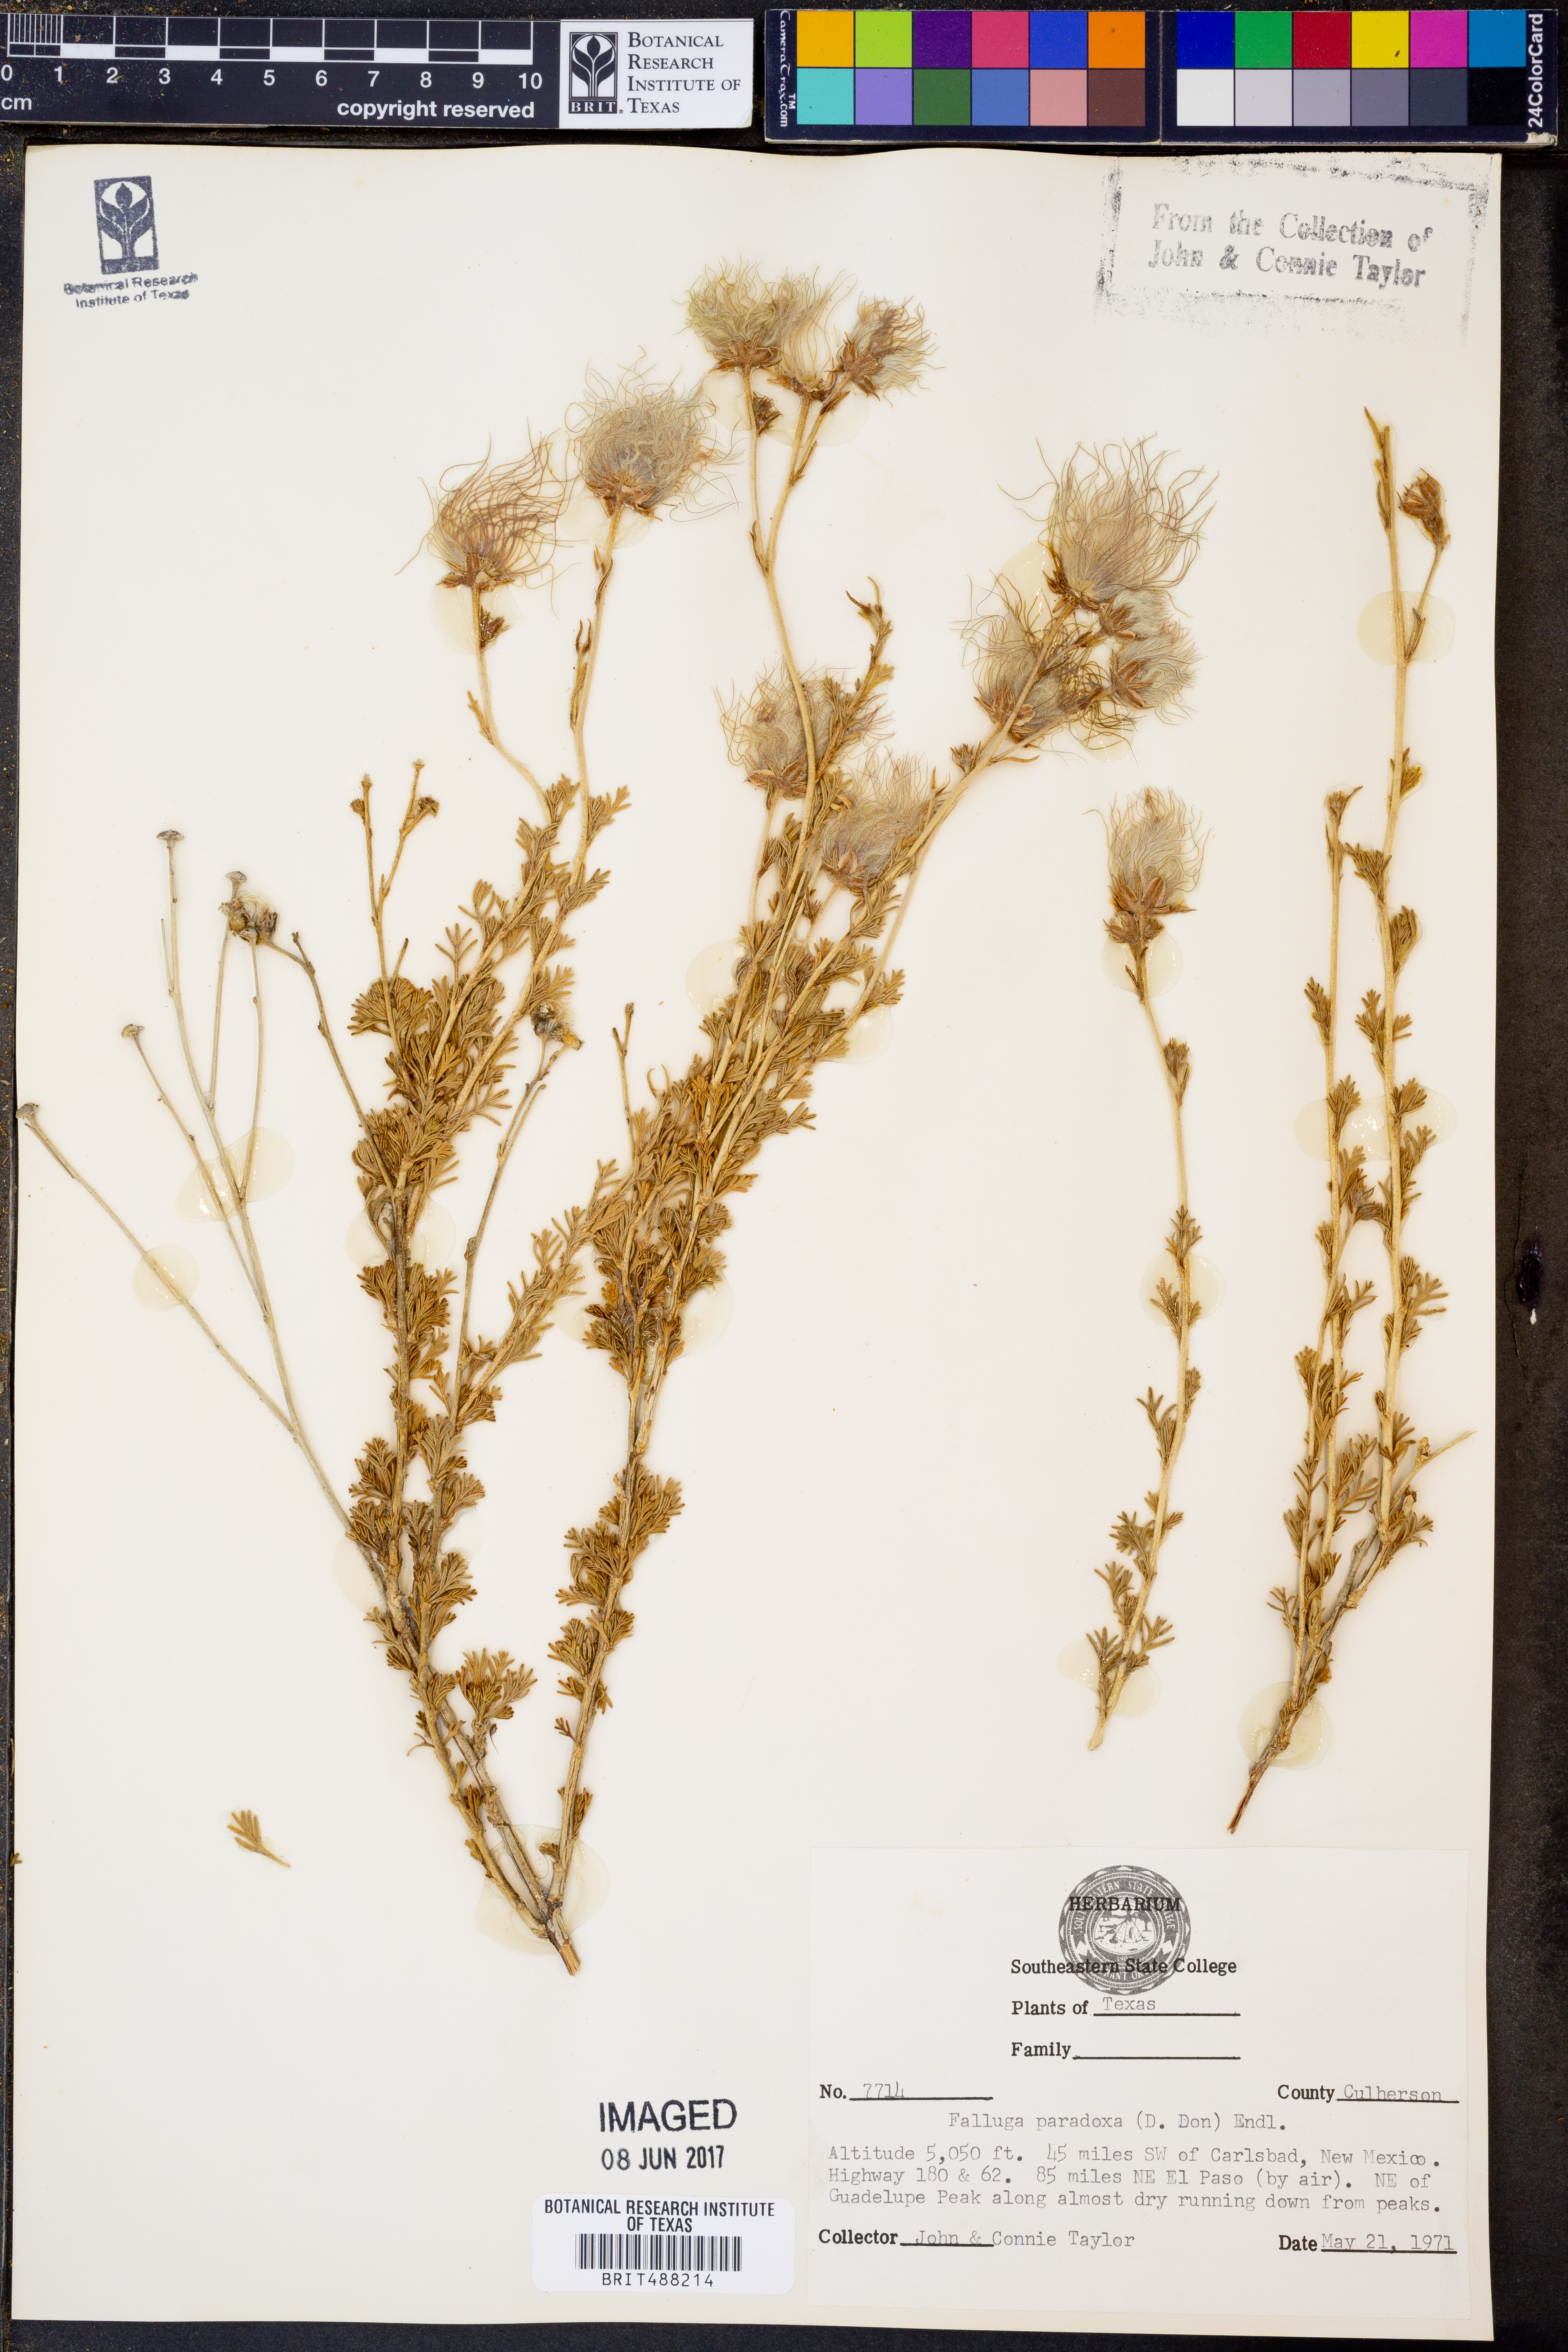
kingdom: Plantae
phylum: Tracheophyta
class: Magnoliopsida
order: Rosales
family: Rosaceae
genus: Fallugia
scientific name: Fallugia paradoxa
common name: Apache-plume
